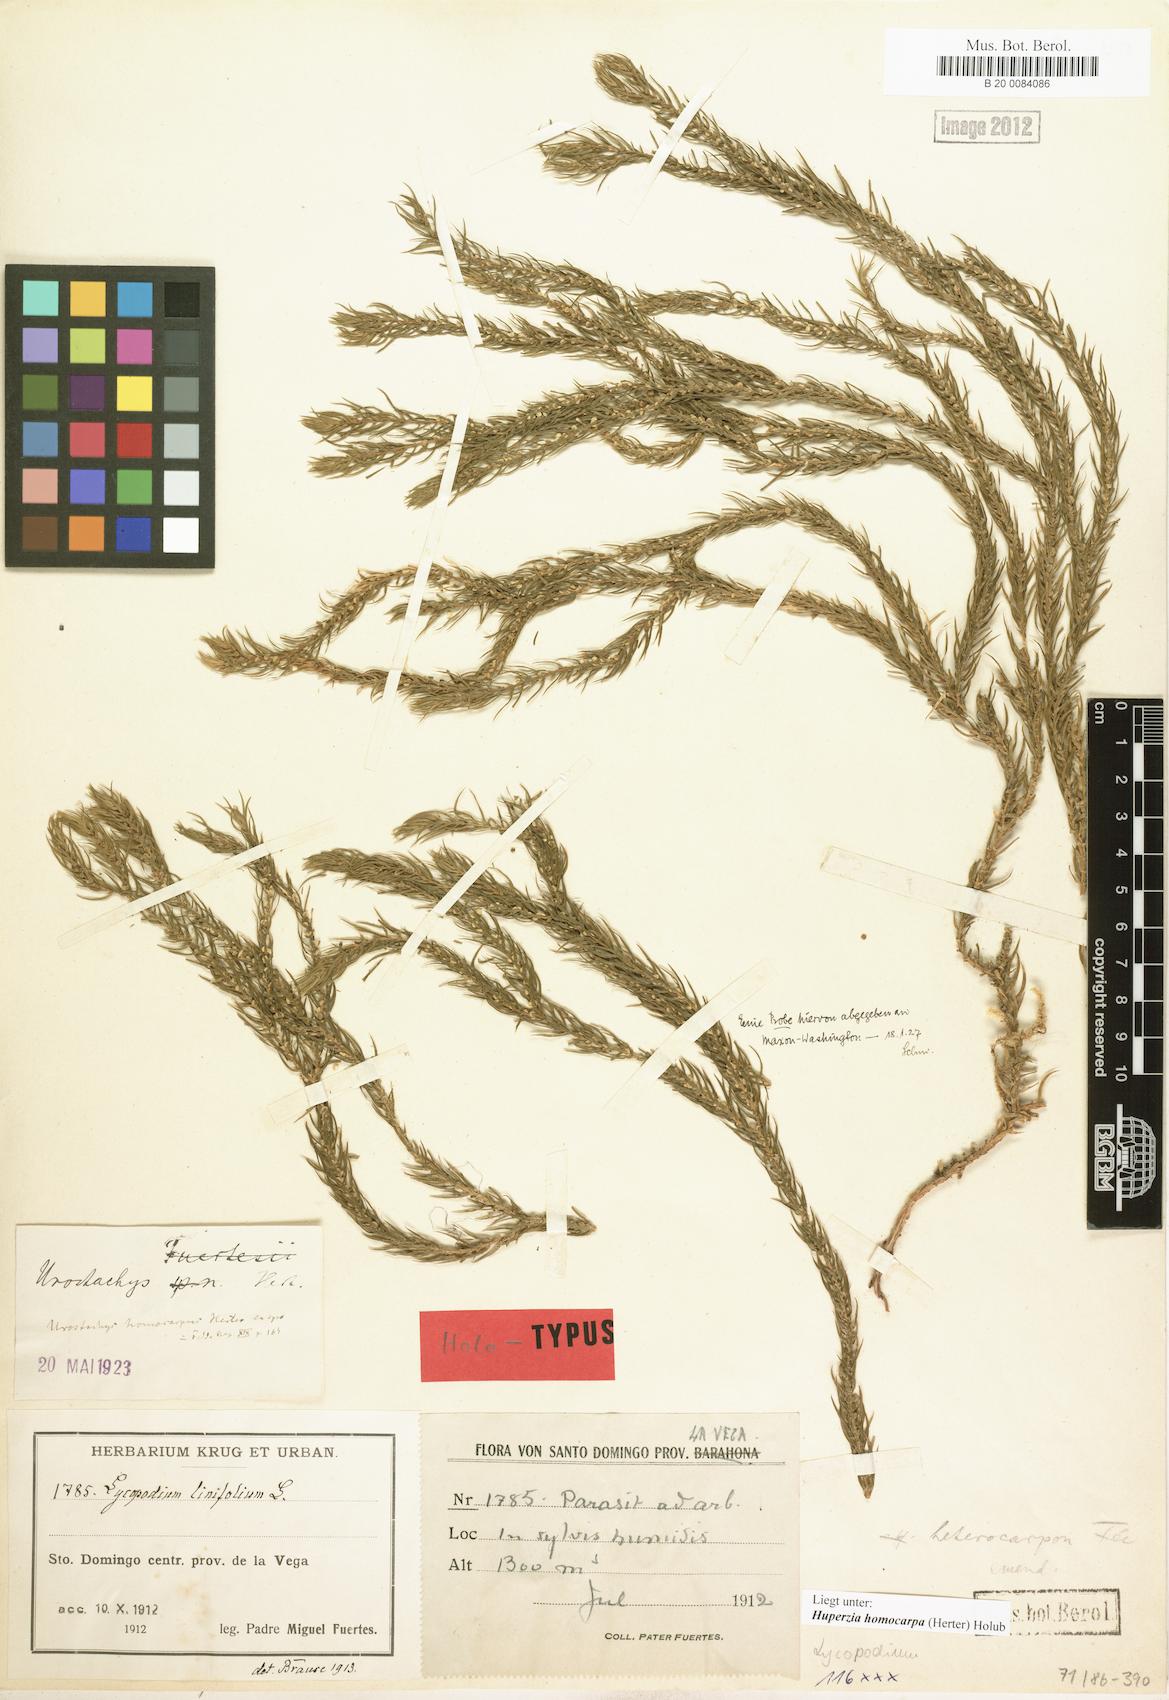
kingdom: Plantae
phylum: Tracheophyta
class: Lycopodiopsida
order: Lycopodiales
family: Lycopodiaceae
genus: Phlegmariurus
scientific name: Phlegmariurus homocarpus
